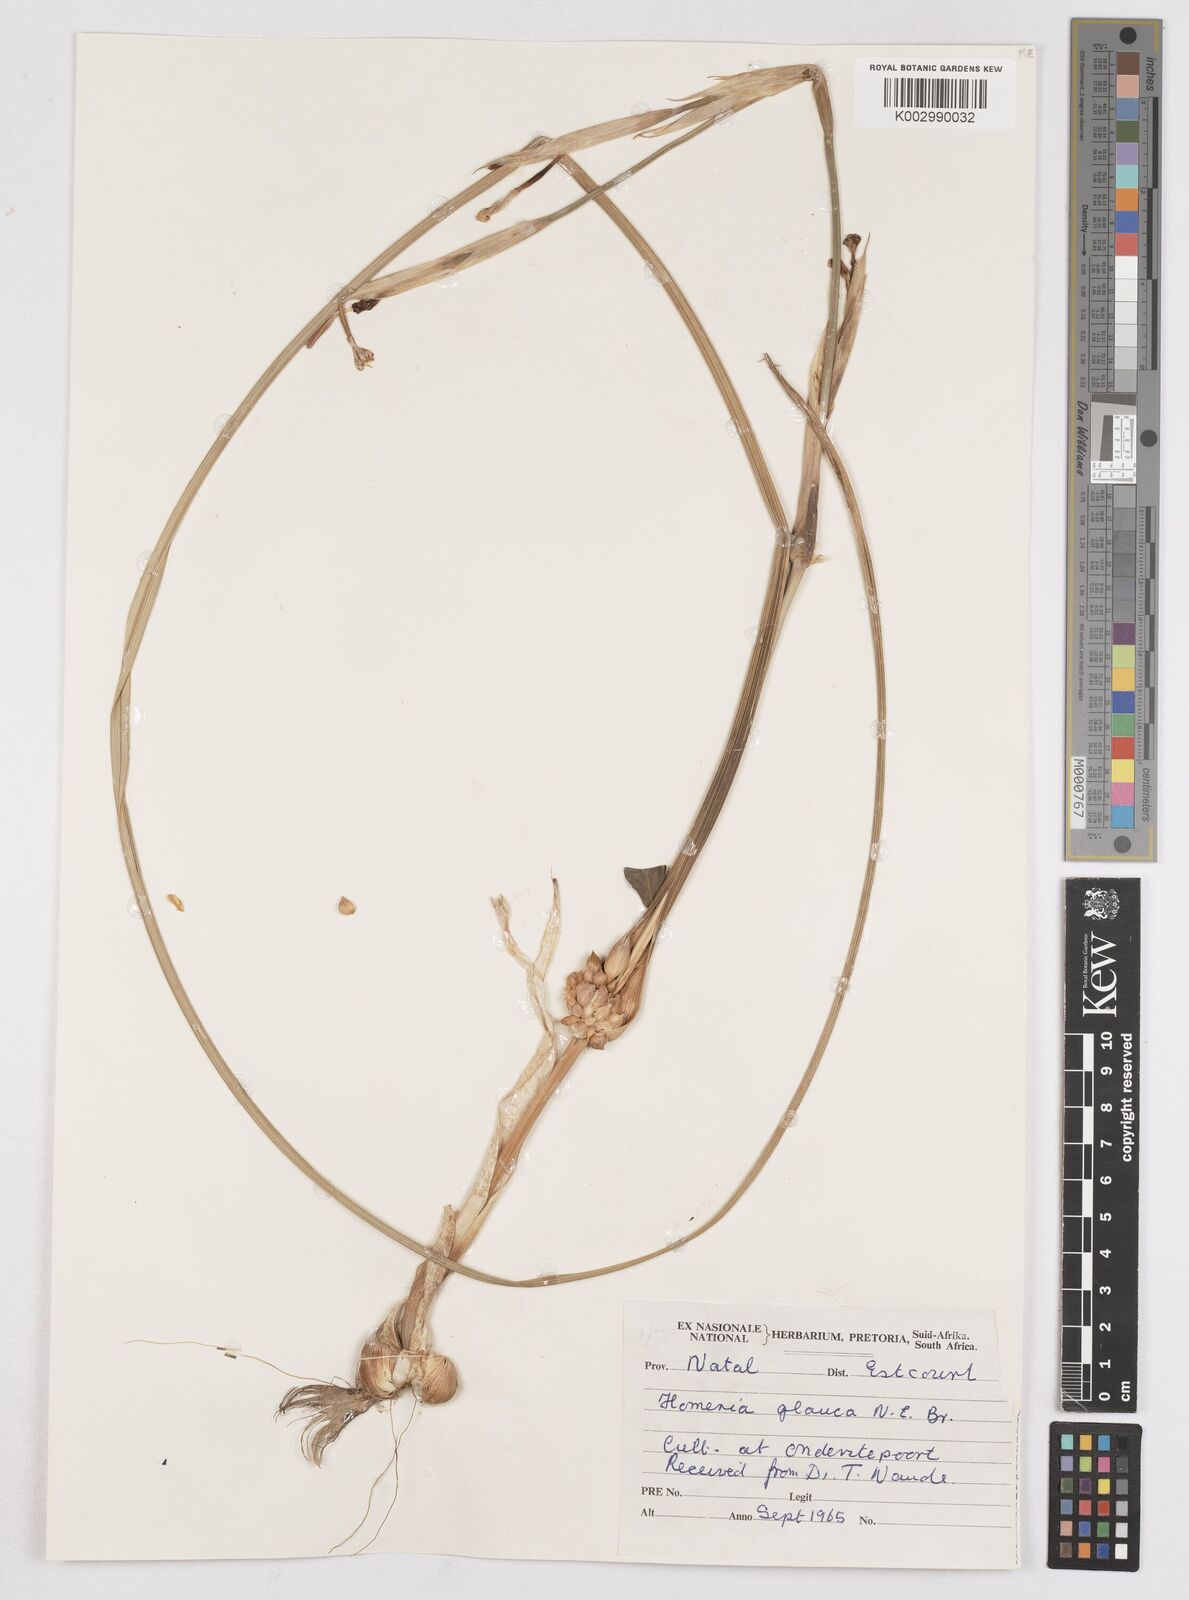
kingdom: Plantae
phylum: Tracheophyta
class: Liliopsida
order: Asparagales
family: Iridaceae
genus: Moraea
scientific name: Moraea pallida
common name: Yellow tulp
